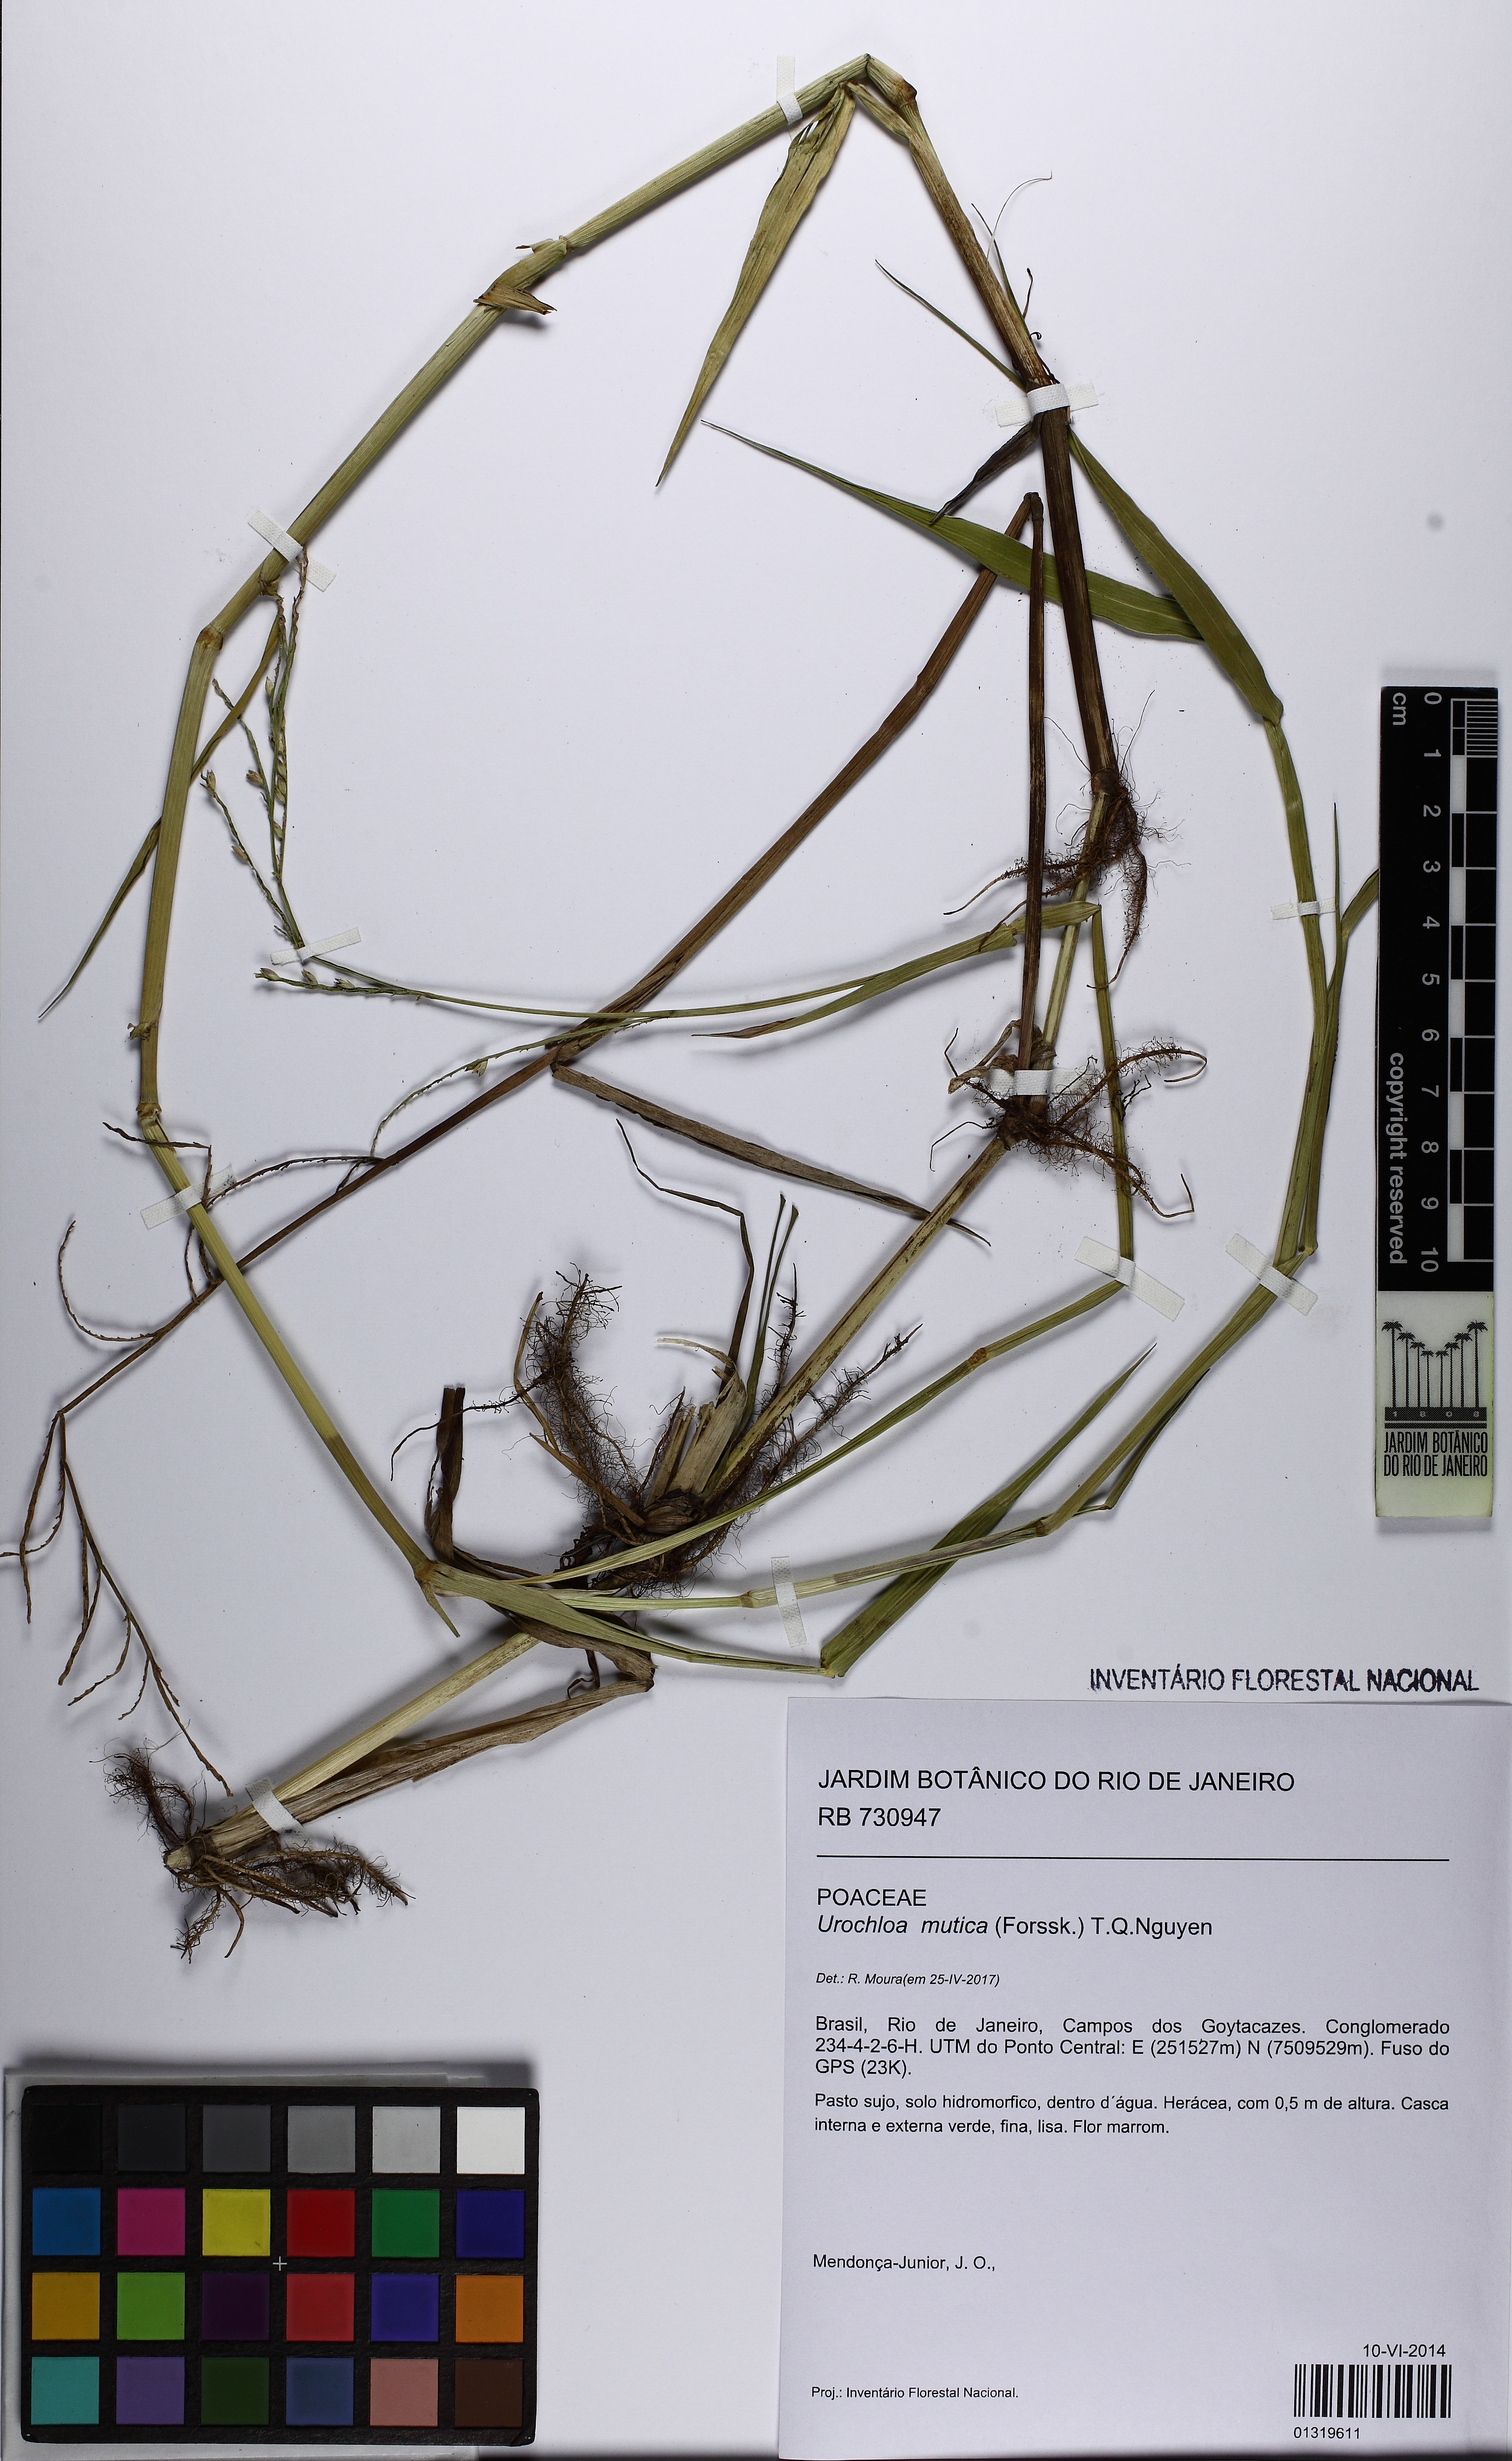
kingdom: Plantae
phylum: Tracheophyta
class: Liliopsida
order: Poales
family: Poaceae
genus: Urochloa
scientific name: Urochloa mutica
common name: Para grass
